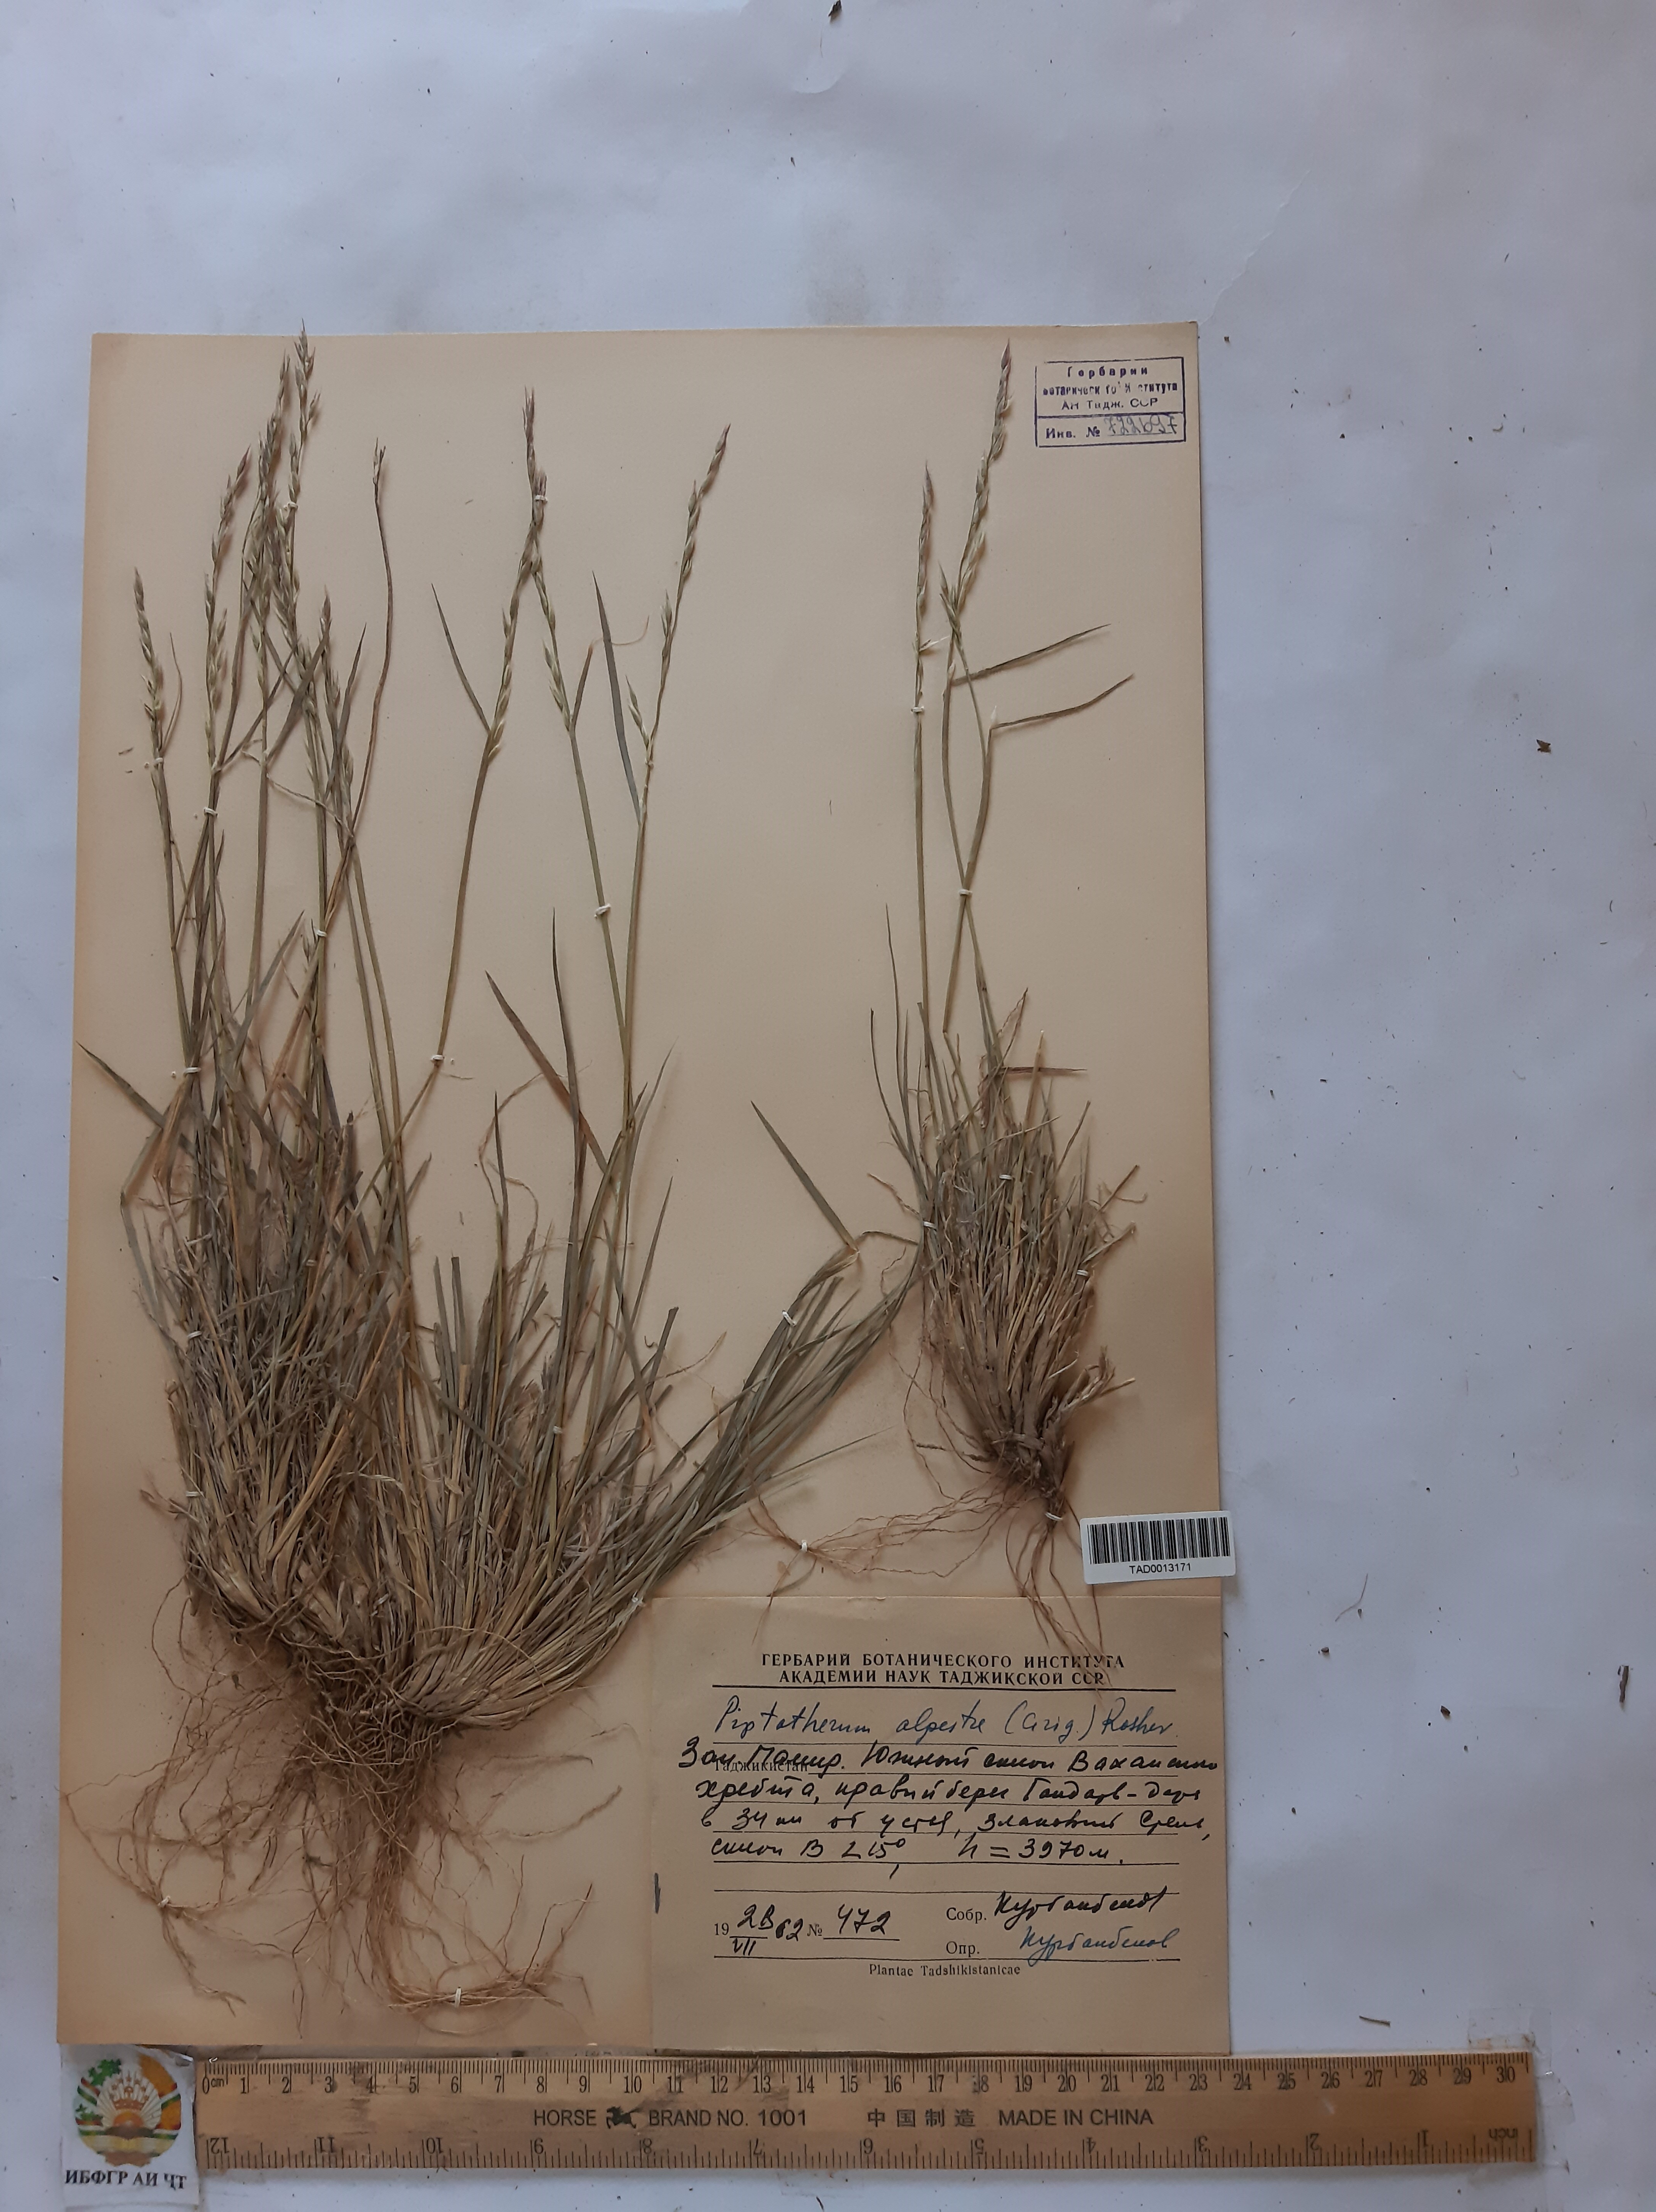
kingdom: Plantae
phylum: Tracheophyta
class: Liliopsida
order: Poales
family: Poaceae
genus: Piptatherum
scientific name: Piptatherum alpestre
